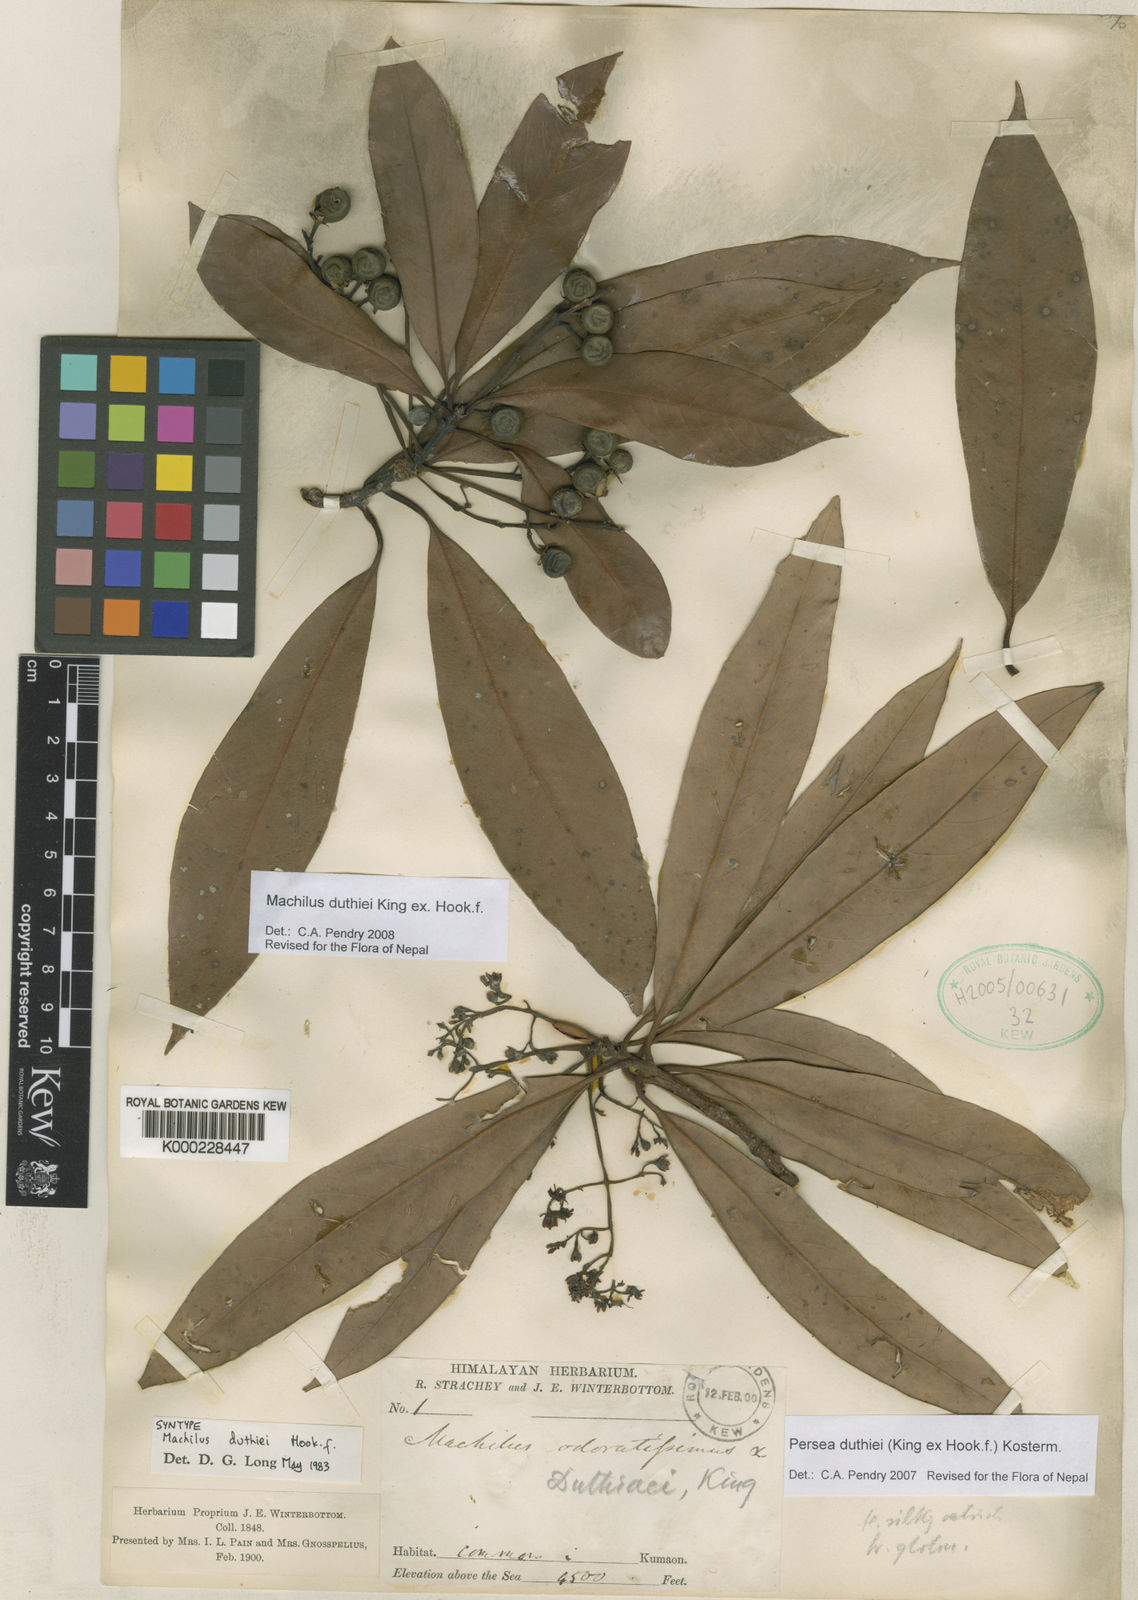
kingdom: Plantae
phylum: Tracheophyta
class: Magnoliopsida
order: Laurales
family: Lauraceae
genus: Machilus
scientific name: Machilus duthiei
